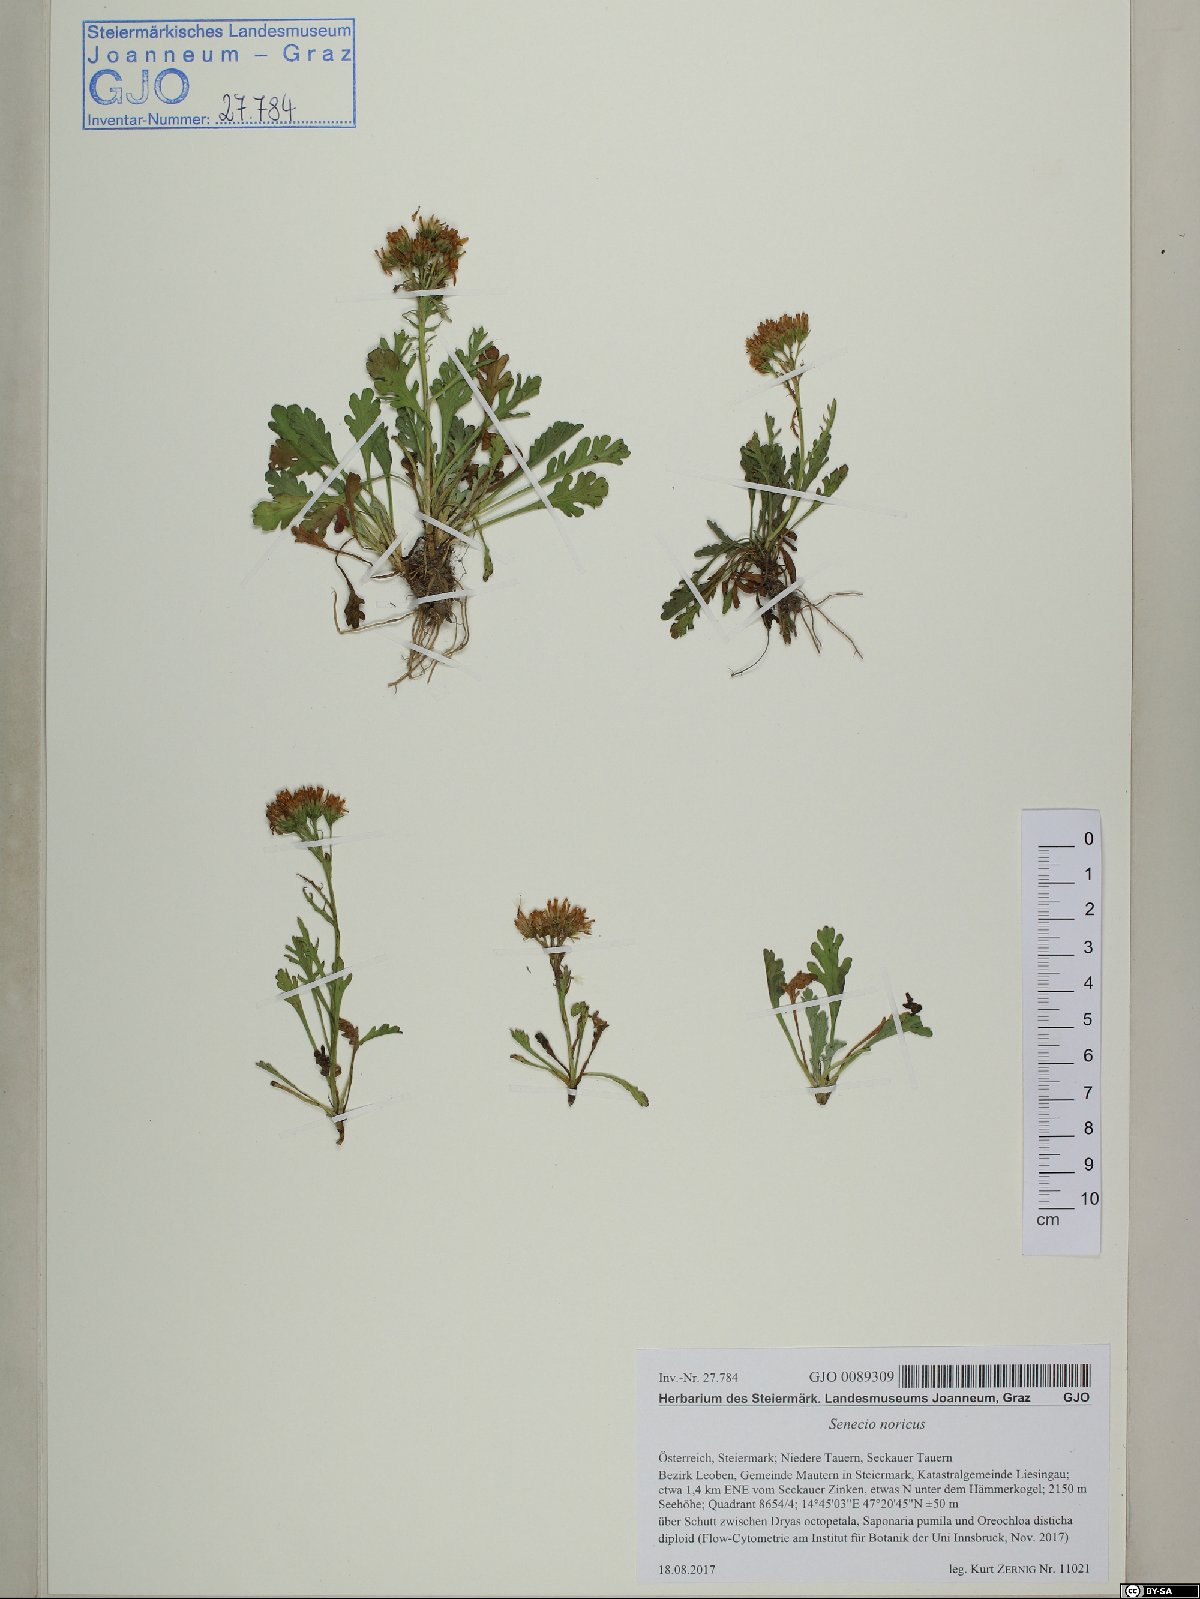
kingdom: Plantae
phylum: Tracheophyta
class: Magnoliopsida
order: Asterales
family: Asteraceae
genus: Jacobaea
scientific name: Jacobaea norica
